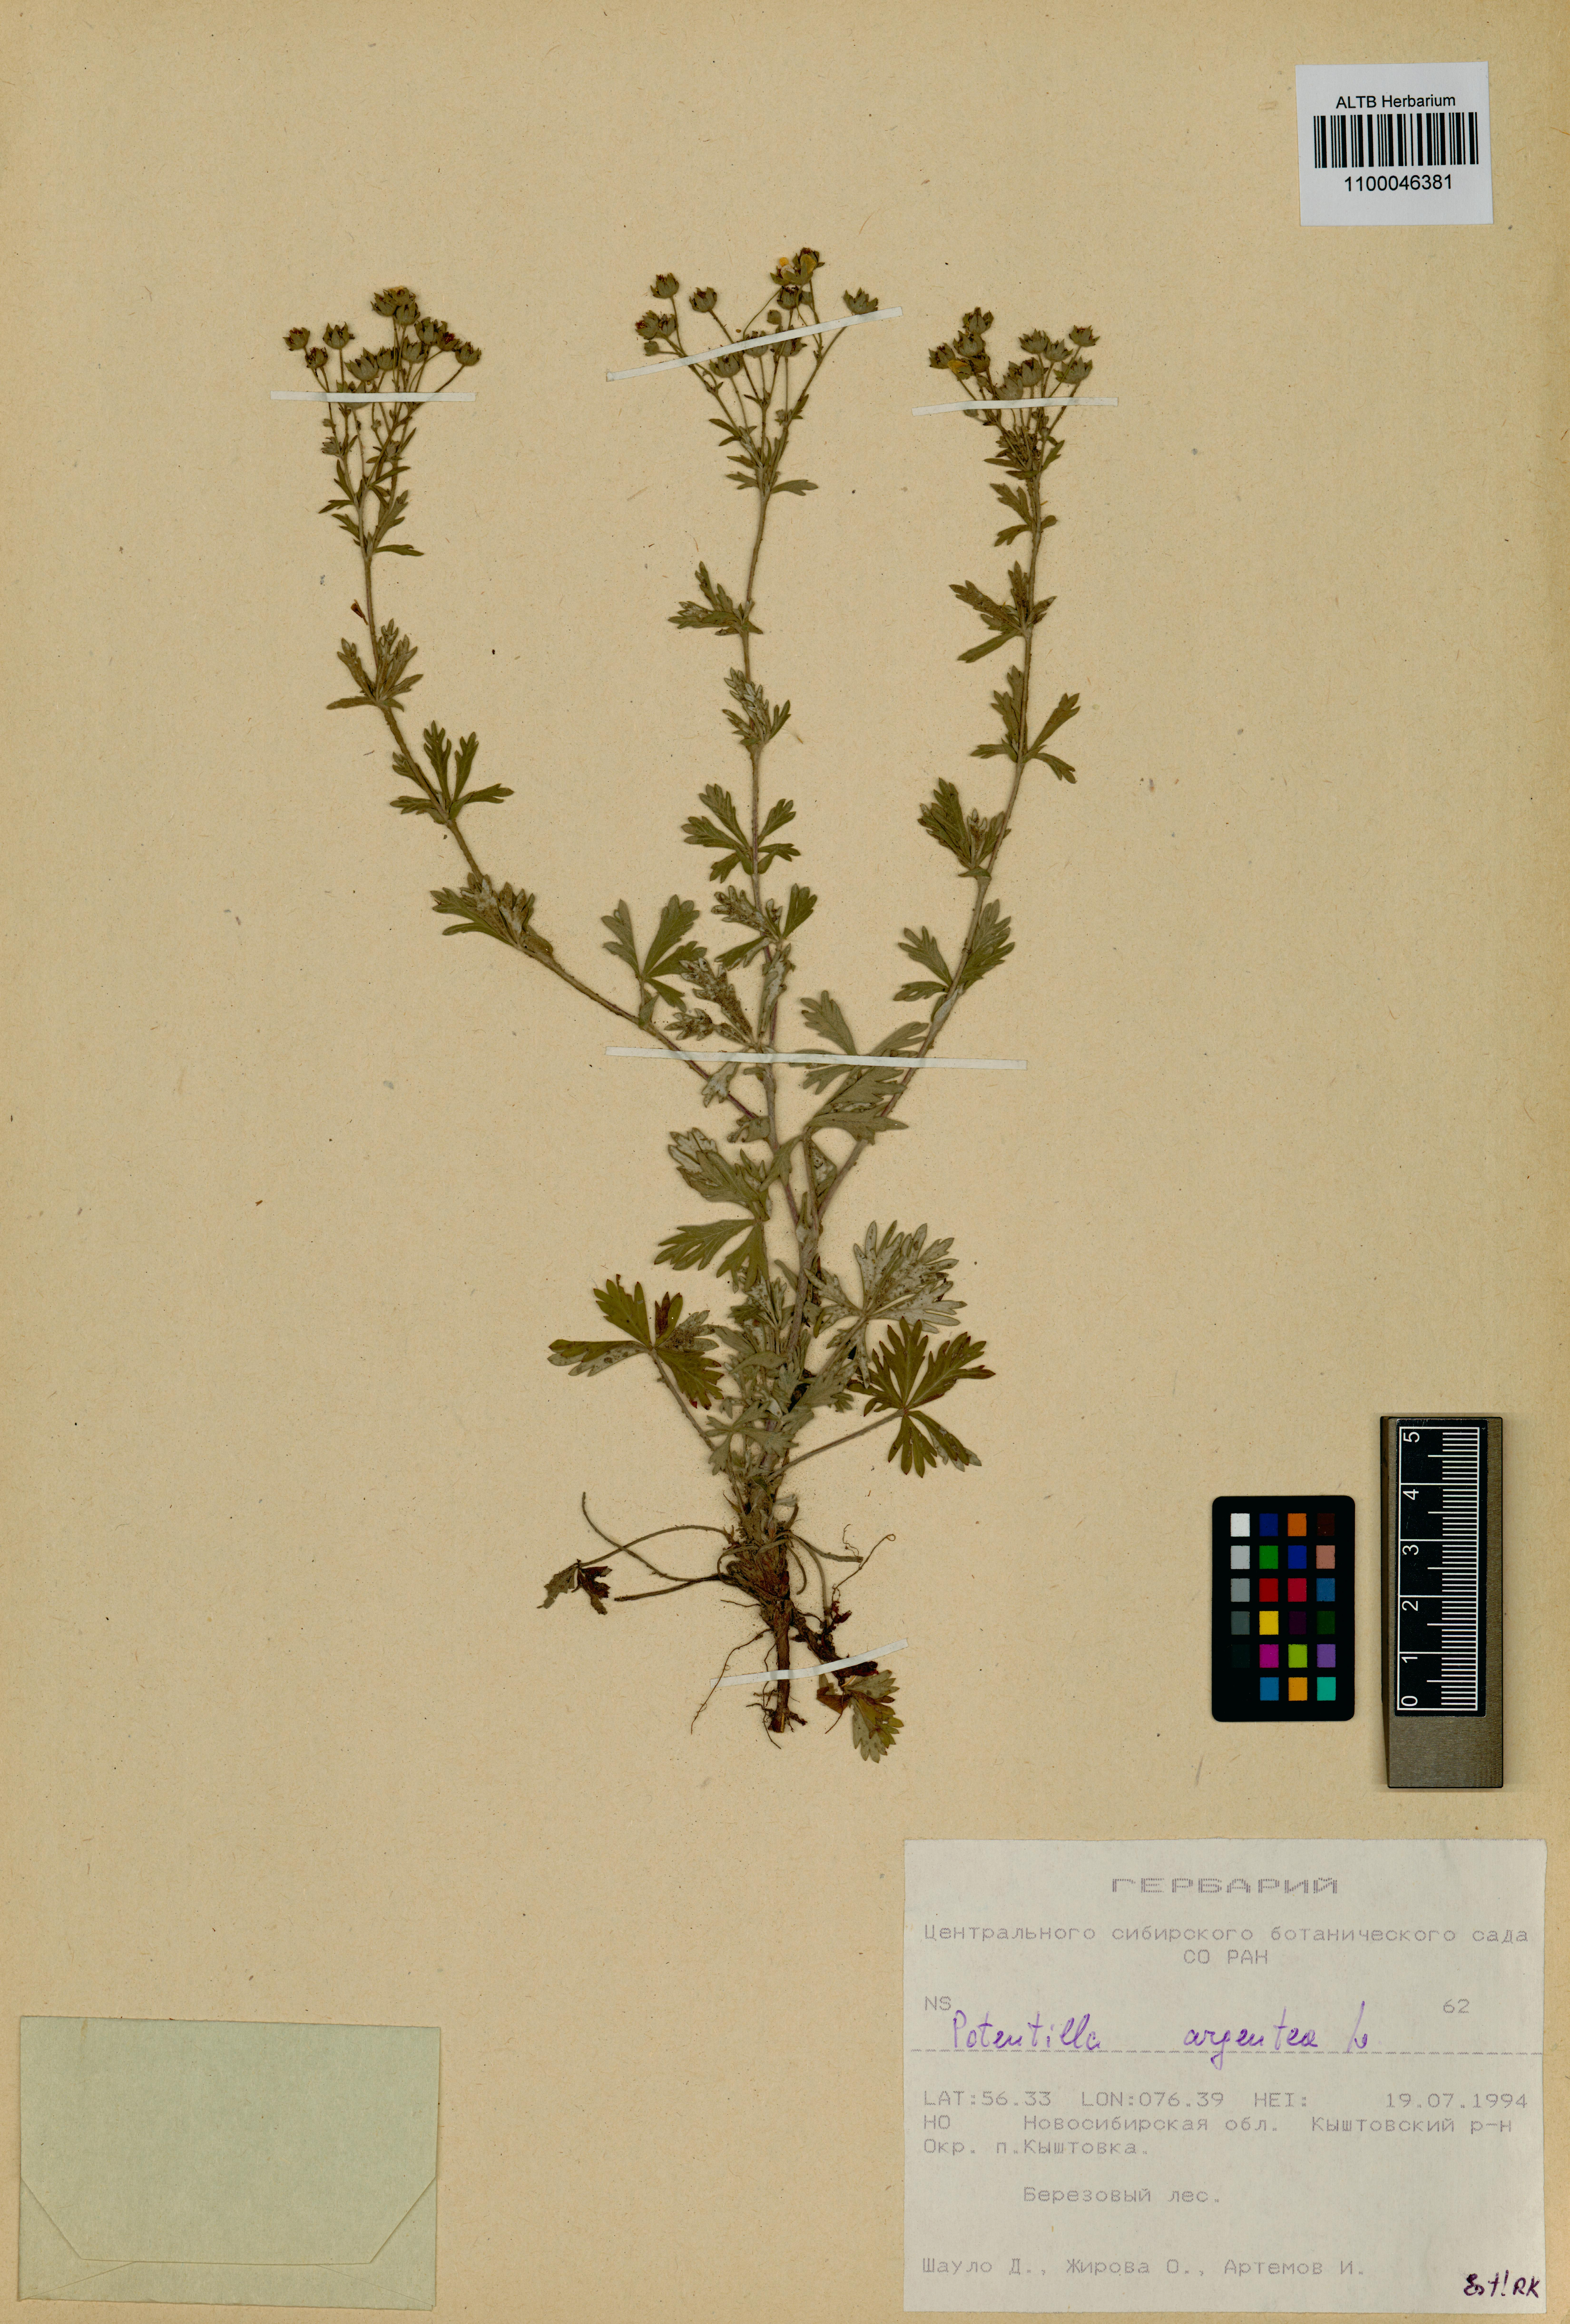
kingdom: Plantae
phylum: Tracheophyta
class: Magnoliopsida
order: Rosales
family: Rosaceae
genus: Potentilla
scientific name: Potentilla argentea
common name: Hoary cinquefoil
